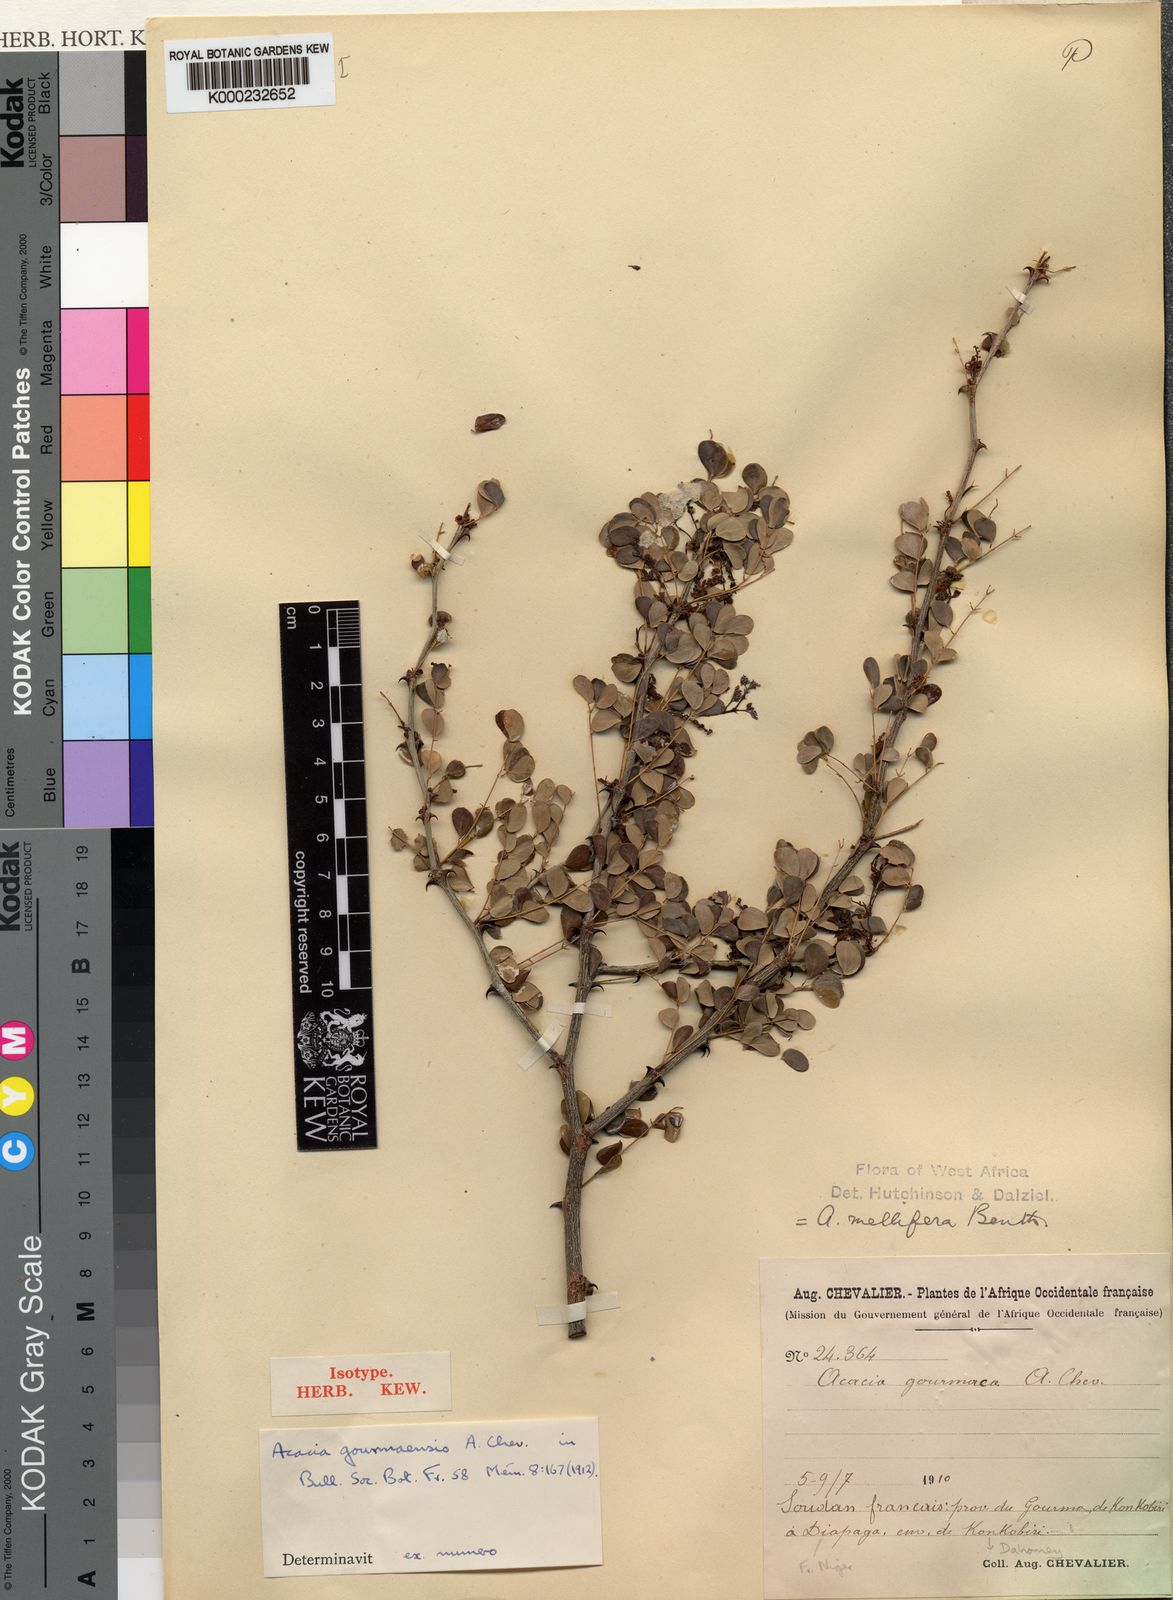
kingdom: Plantae
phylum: Tracheophyta
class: Magnoliopsida
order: Fabales
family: Fabaceae
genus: Senegalia
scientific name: Senegalia gourmaensis
